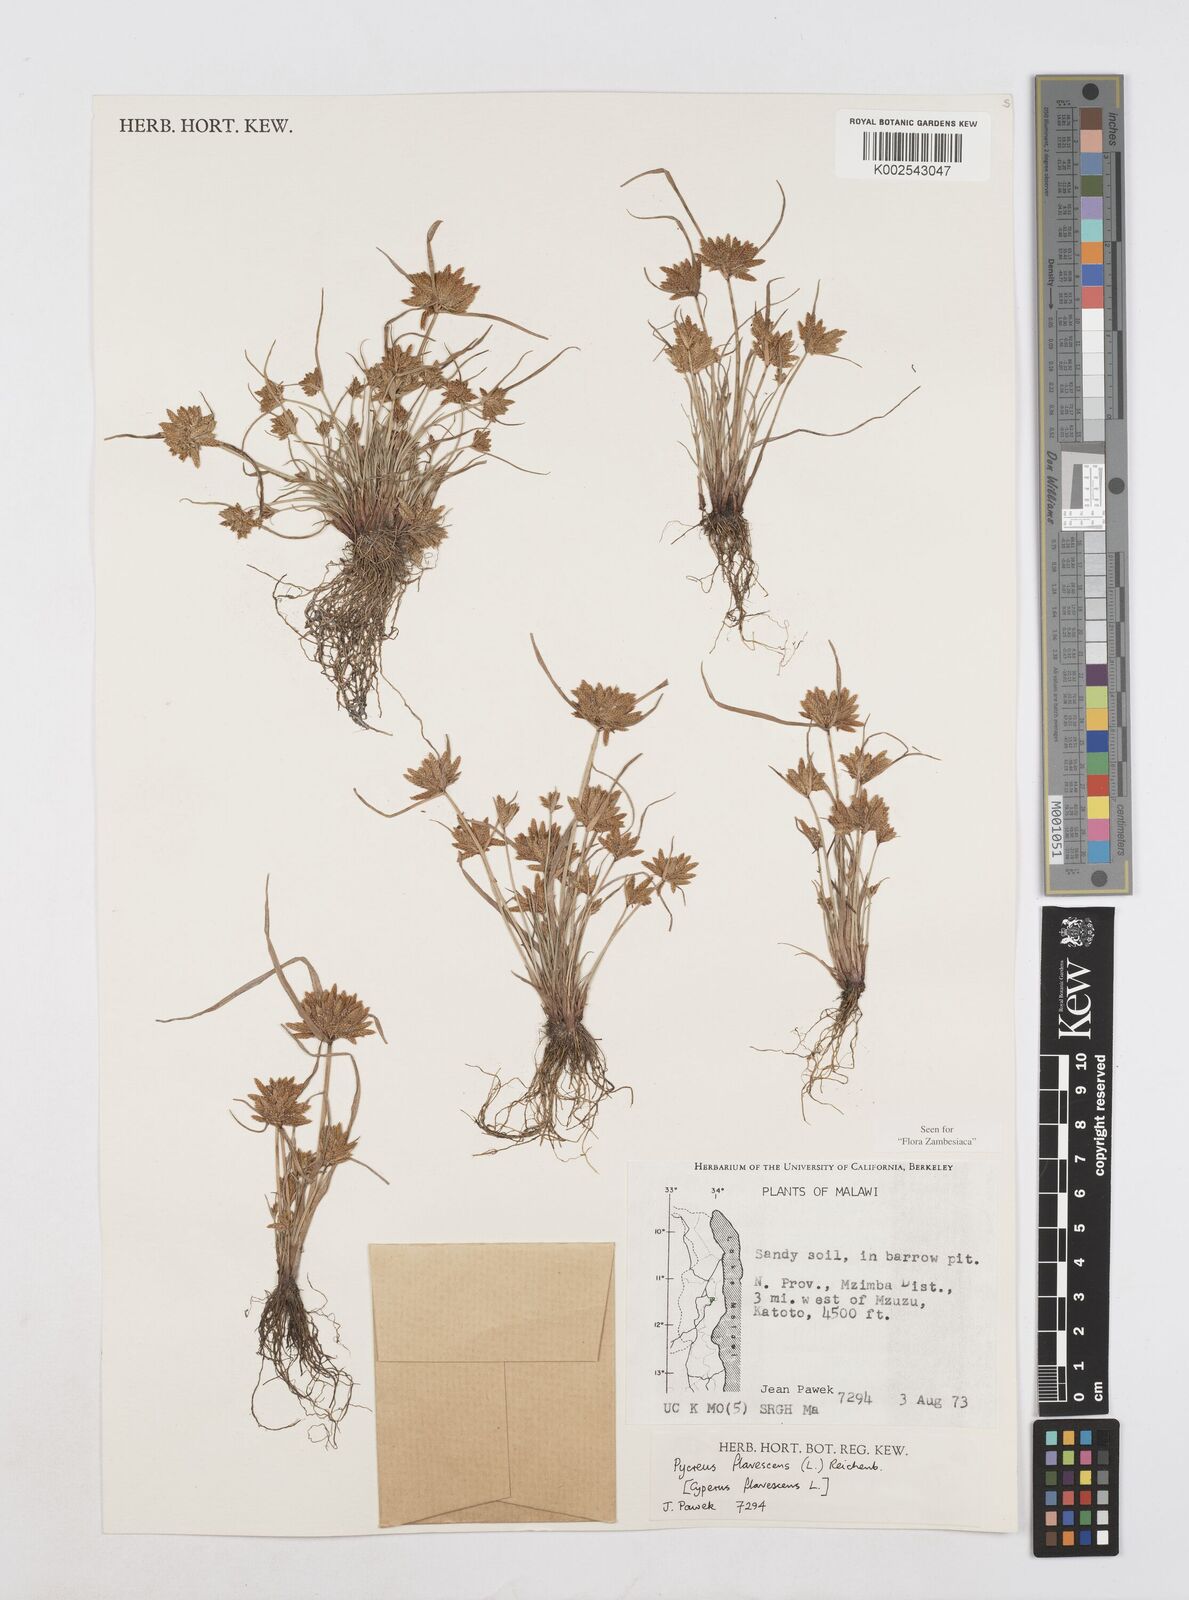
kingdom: Plantae
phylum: Tracheophyta
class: Liliopsida
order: Poales
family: Cyperaceae
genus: Cyperus
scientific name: Cyperus flavescens
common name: Yellow galingale
